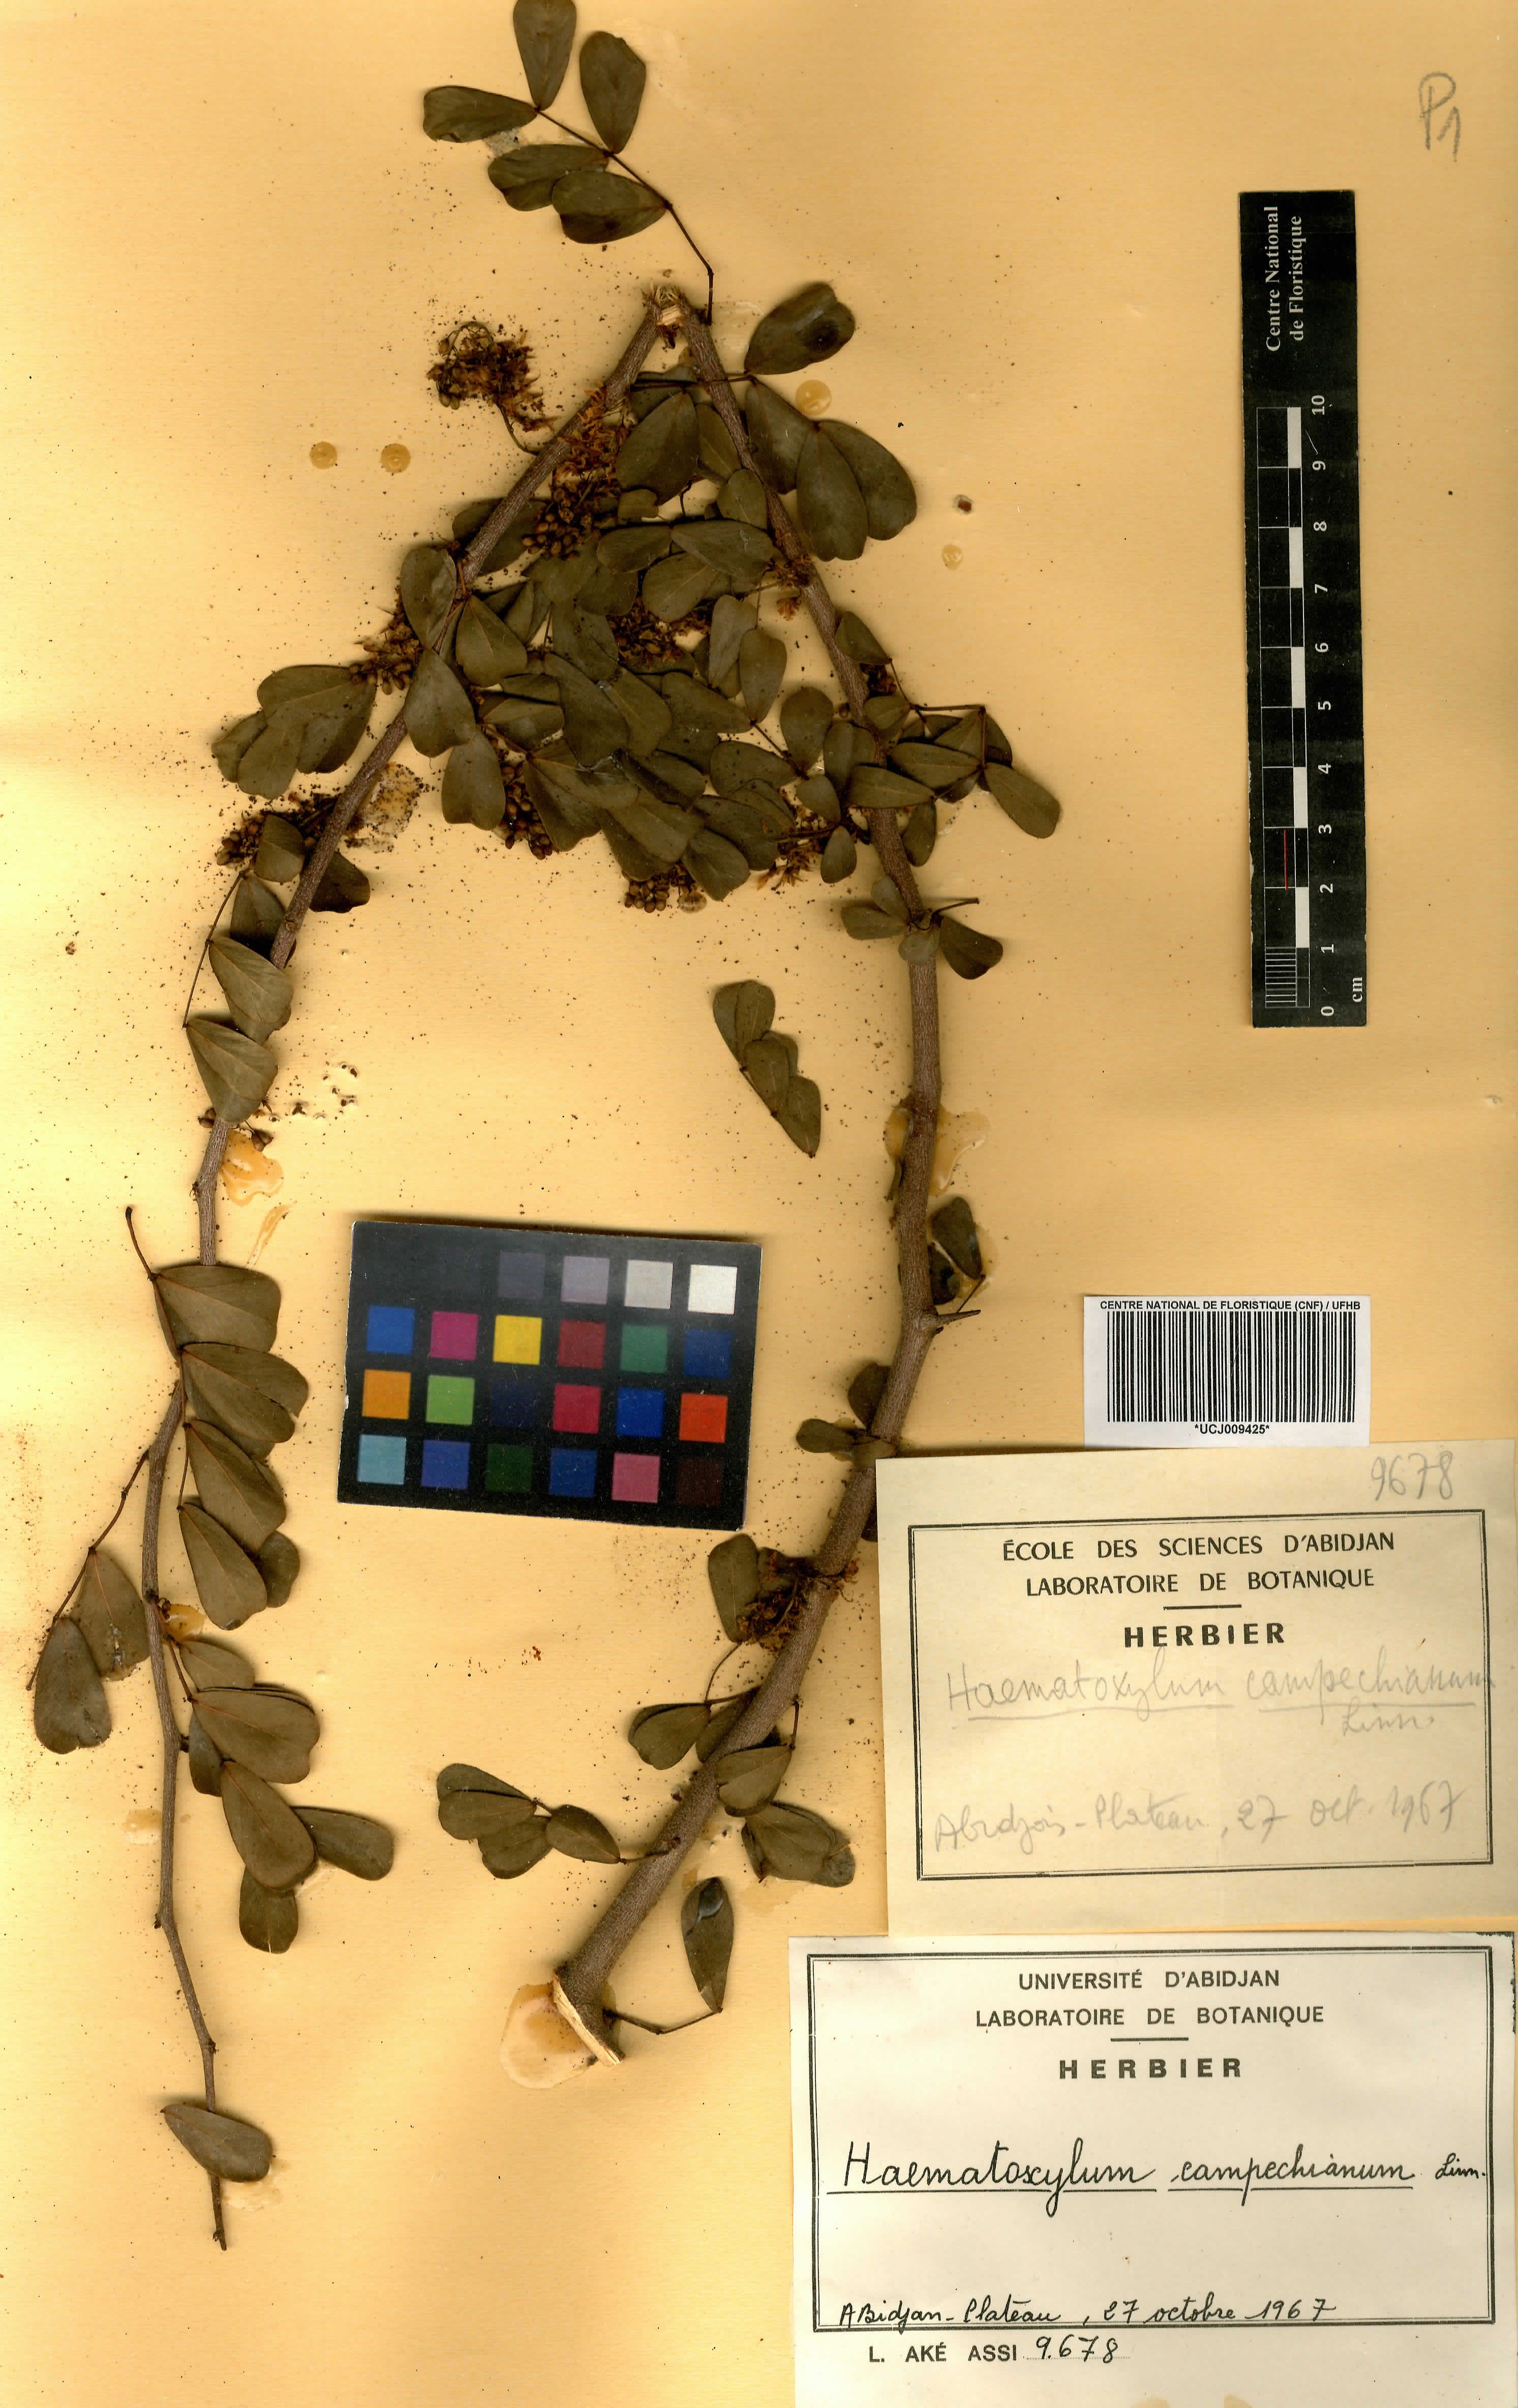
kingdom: Plantae
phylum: Tracheophyta
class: Magnoliopsida
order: Fabales
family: Fabaceae
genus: Haematoxylum
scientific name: Haematoxylum campechianum
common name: Logwood
